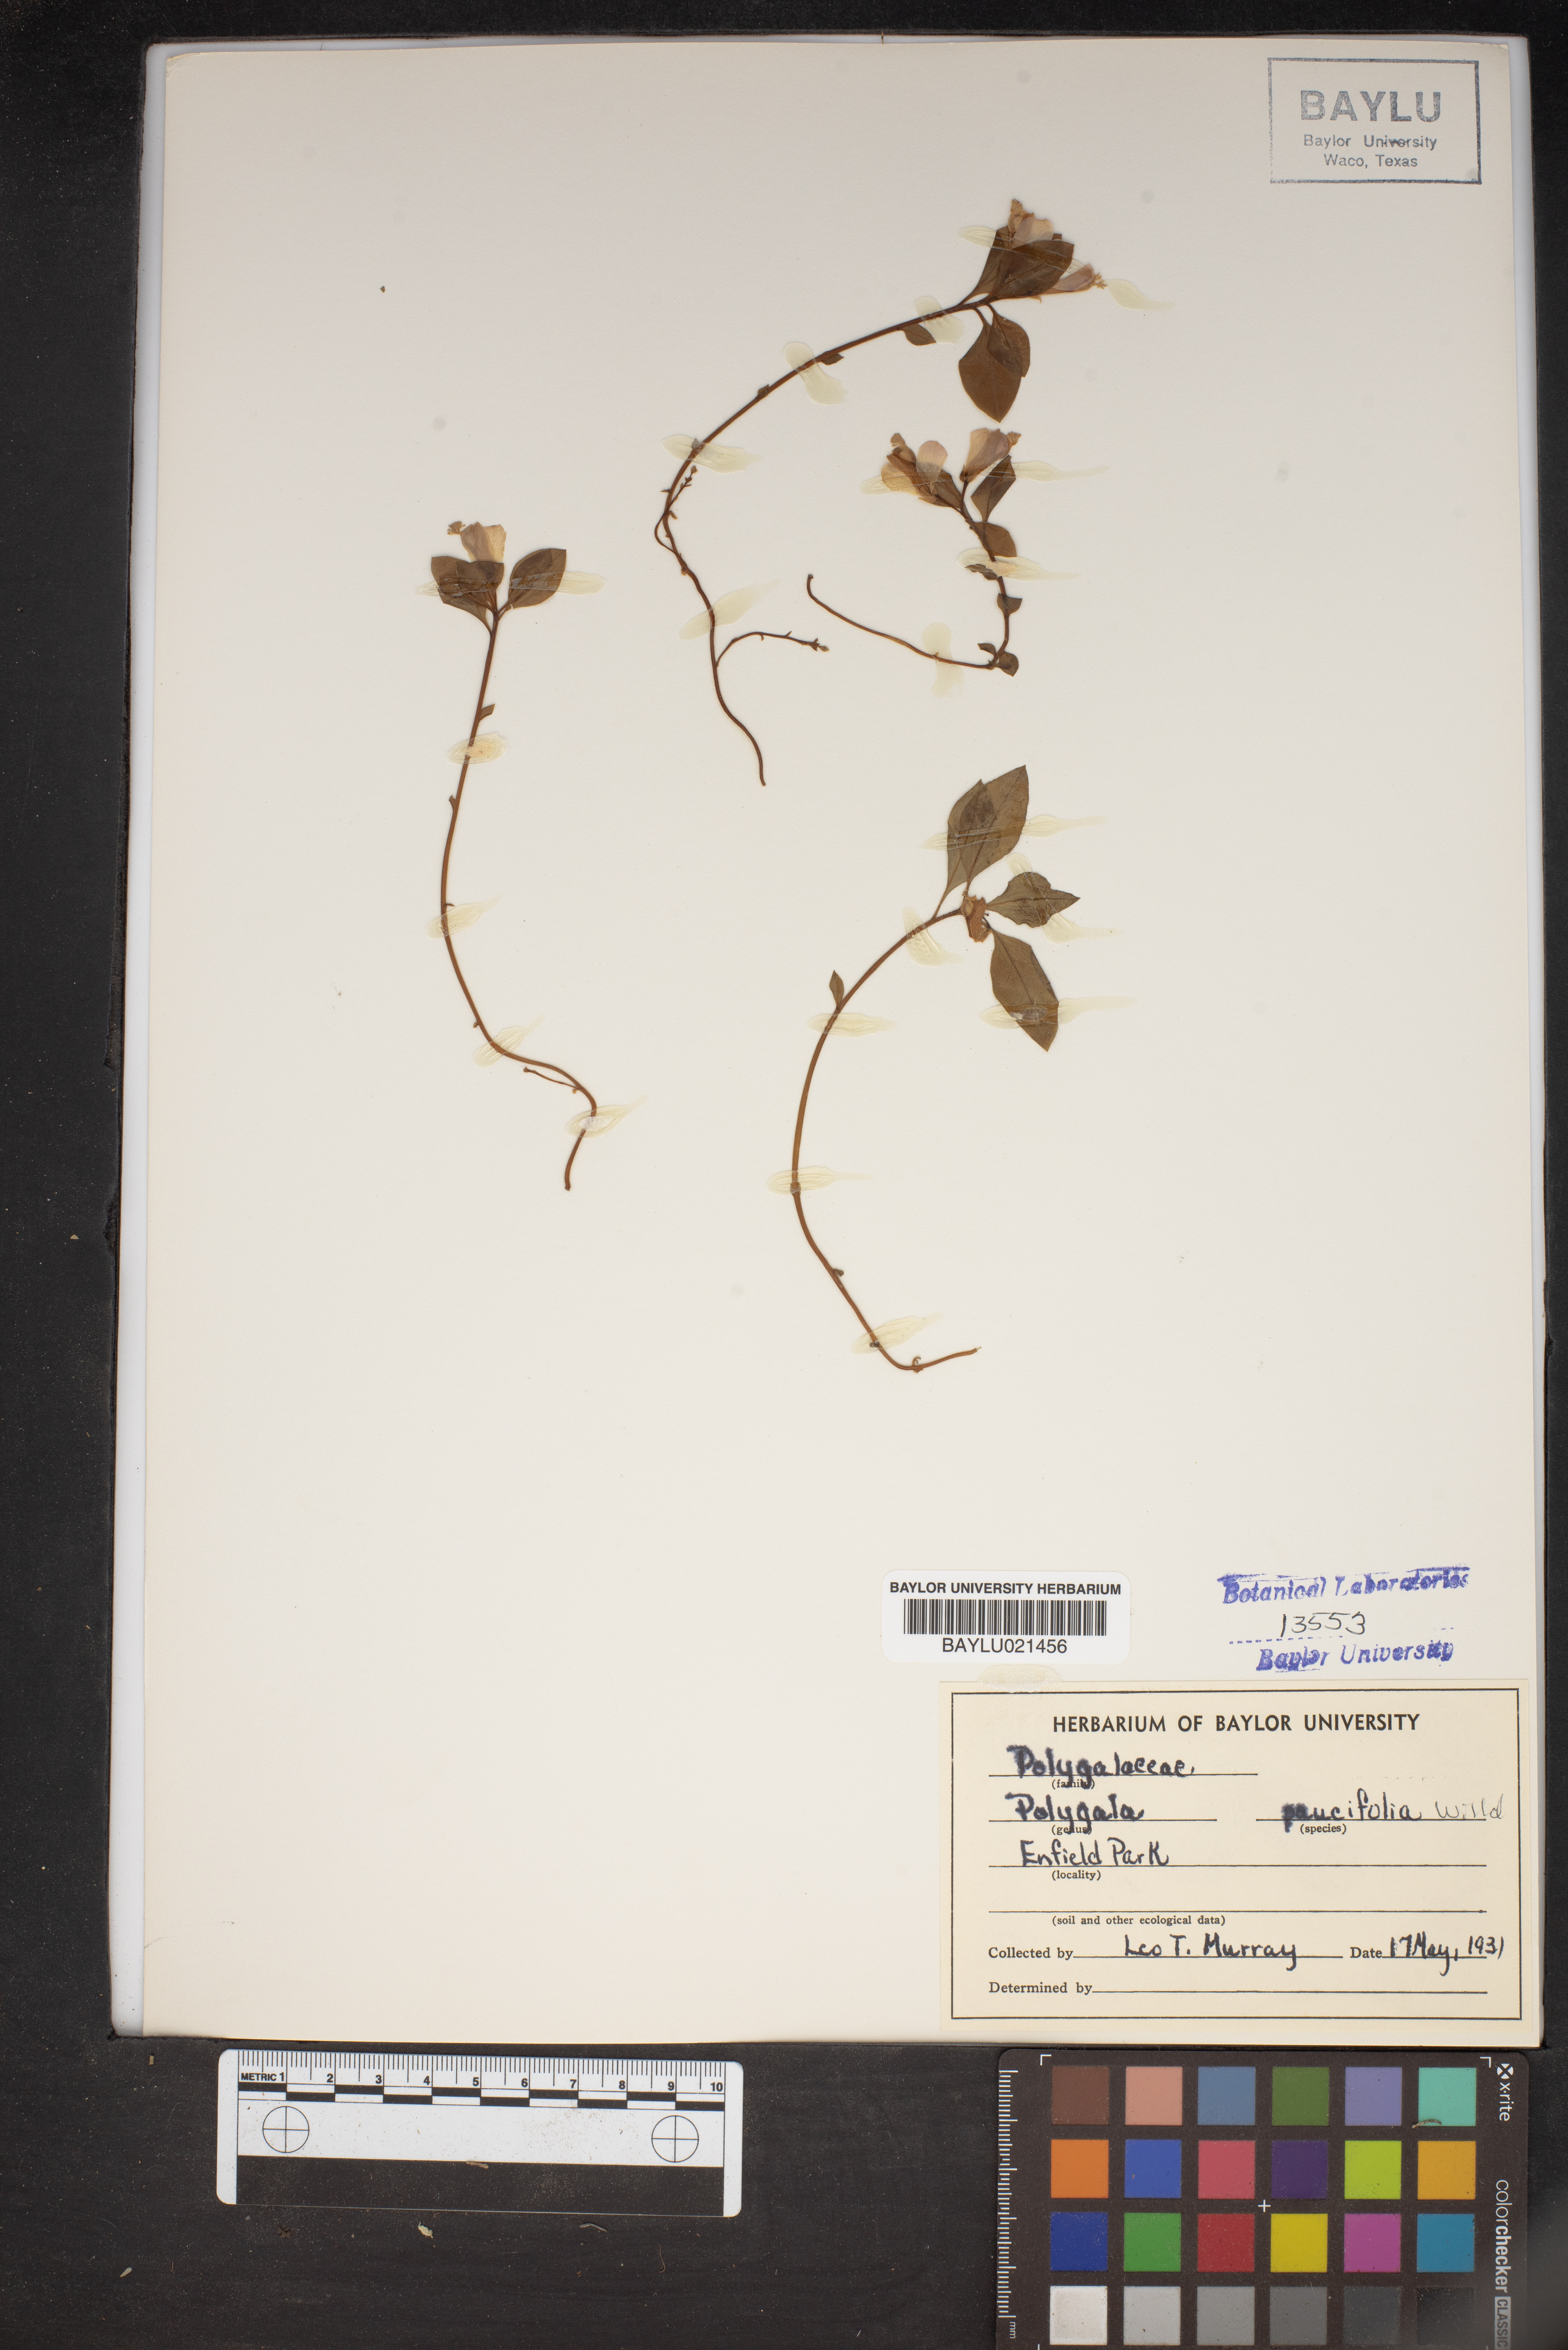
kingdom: Plantae
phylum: Tracheophyta
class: Magnoliopsida
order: Fabales
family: Polygalaceae
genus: Polygaloides
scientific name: Polygaloides paucifolia
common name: Bird-on-the-wing
